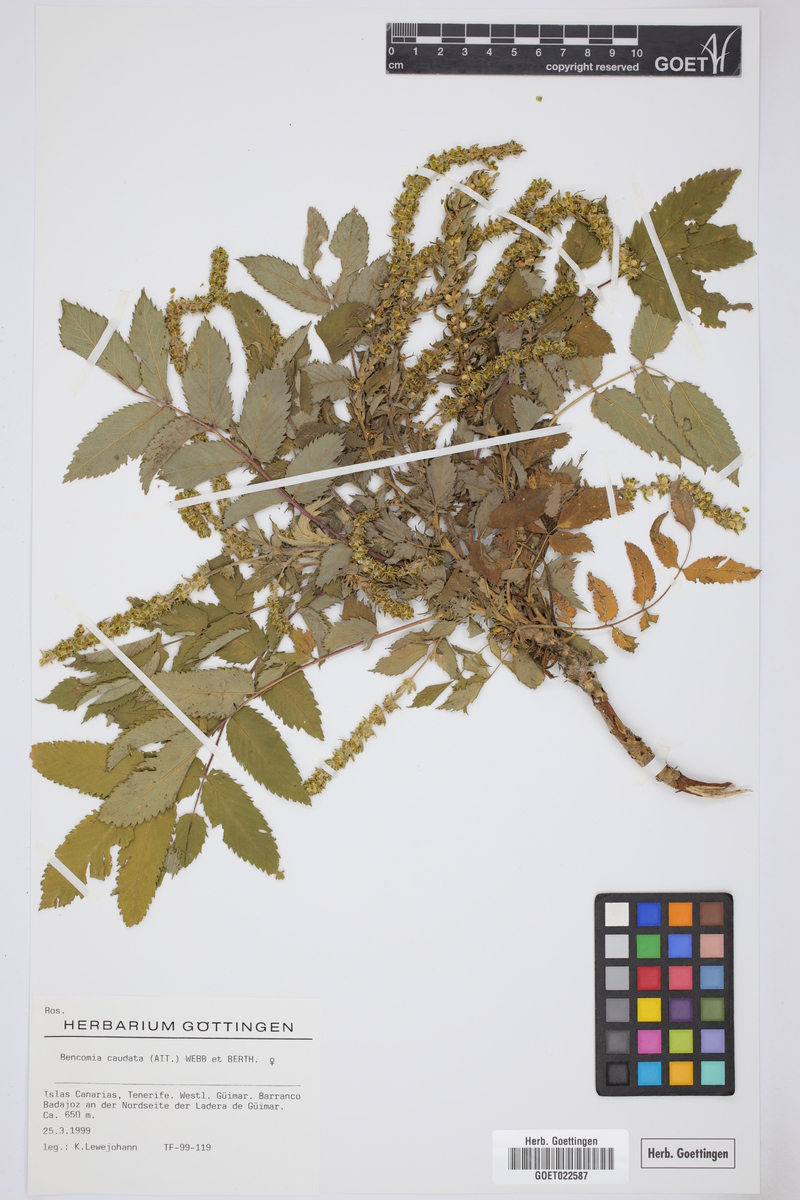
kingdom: Plantae
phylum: Tracheophyta
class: Magnoliopsida
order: Rosales
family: Rosaceae
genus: Bencomia
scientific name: Bencomia caudata
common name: Bencomia
